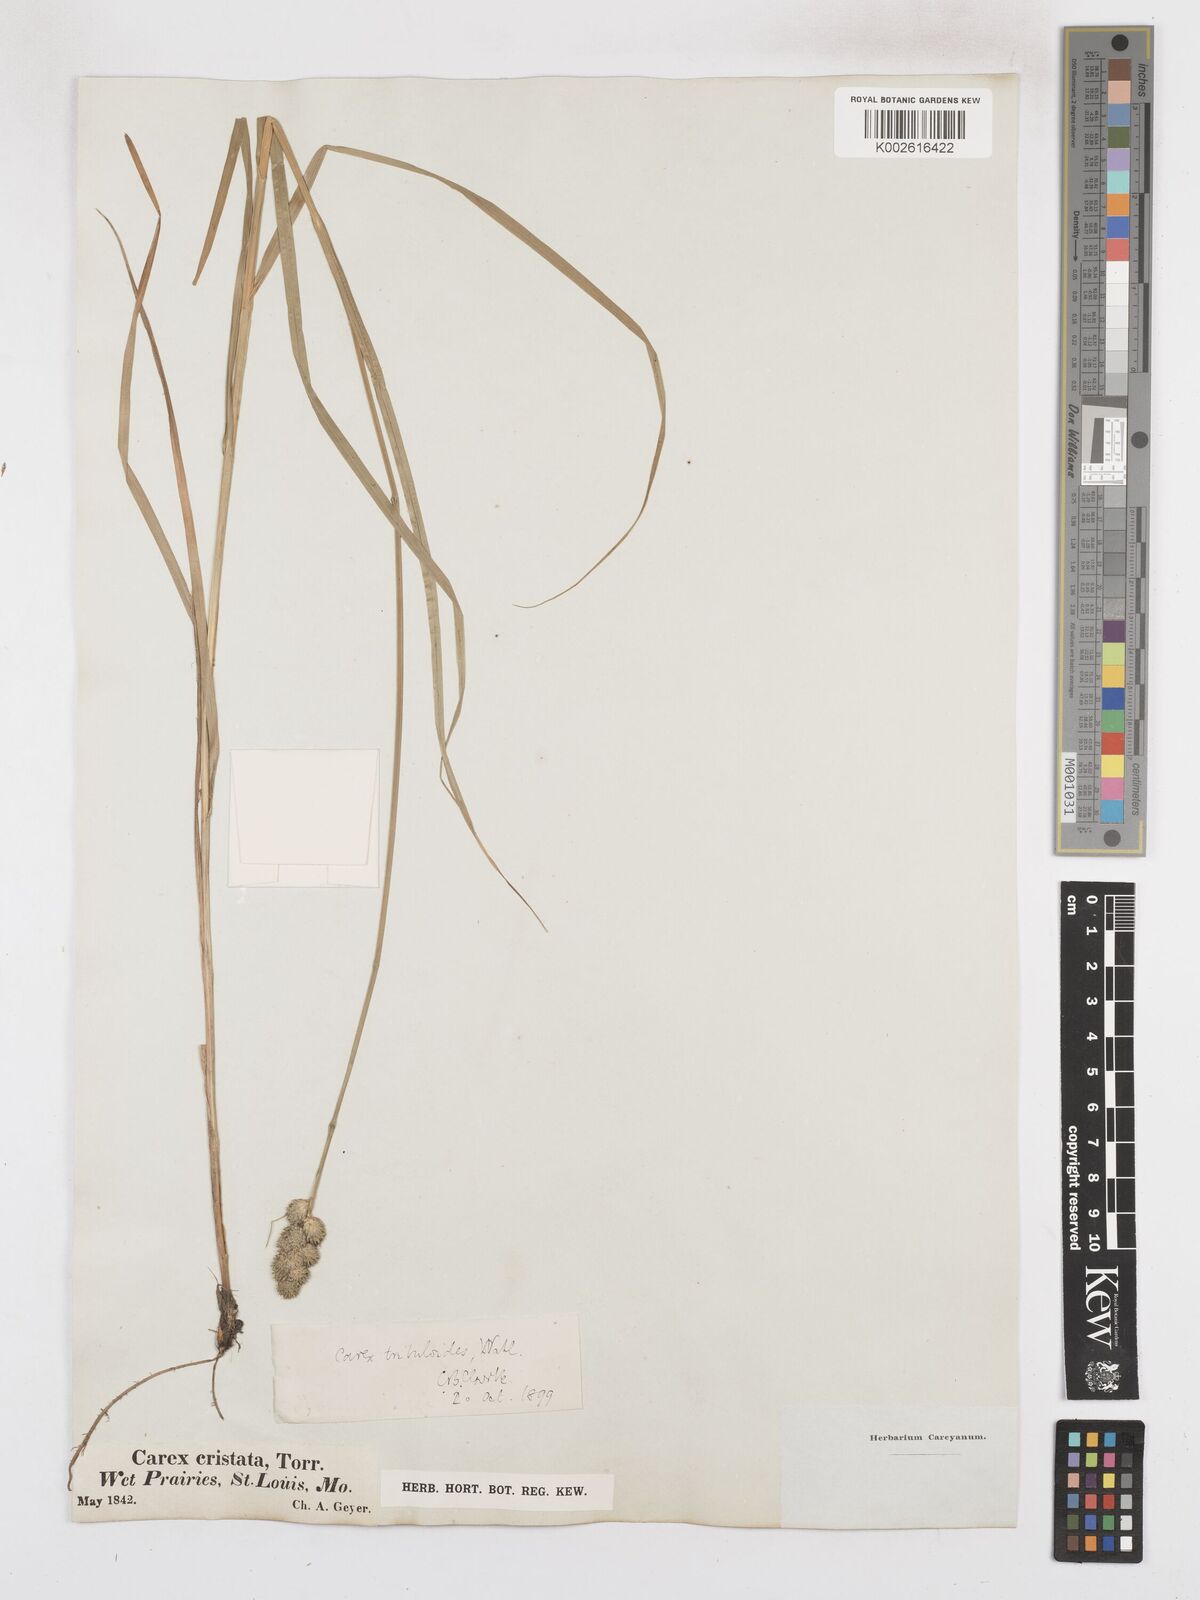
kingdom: Plantae
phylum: Tracheophyta
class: Liliopsida
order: Poales
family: Cyperaceae
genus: Carex
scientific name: Carex tribuloides
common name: Blunt broom sedge
